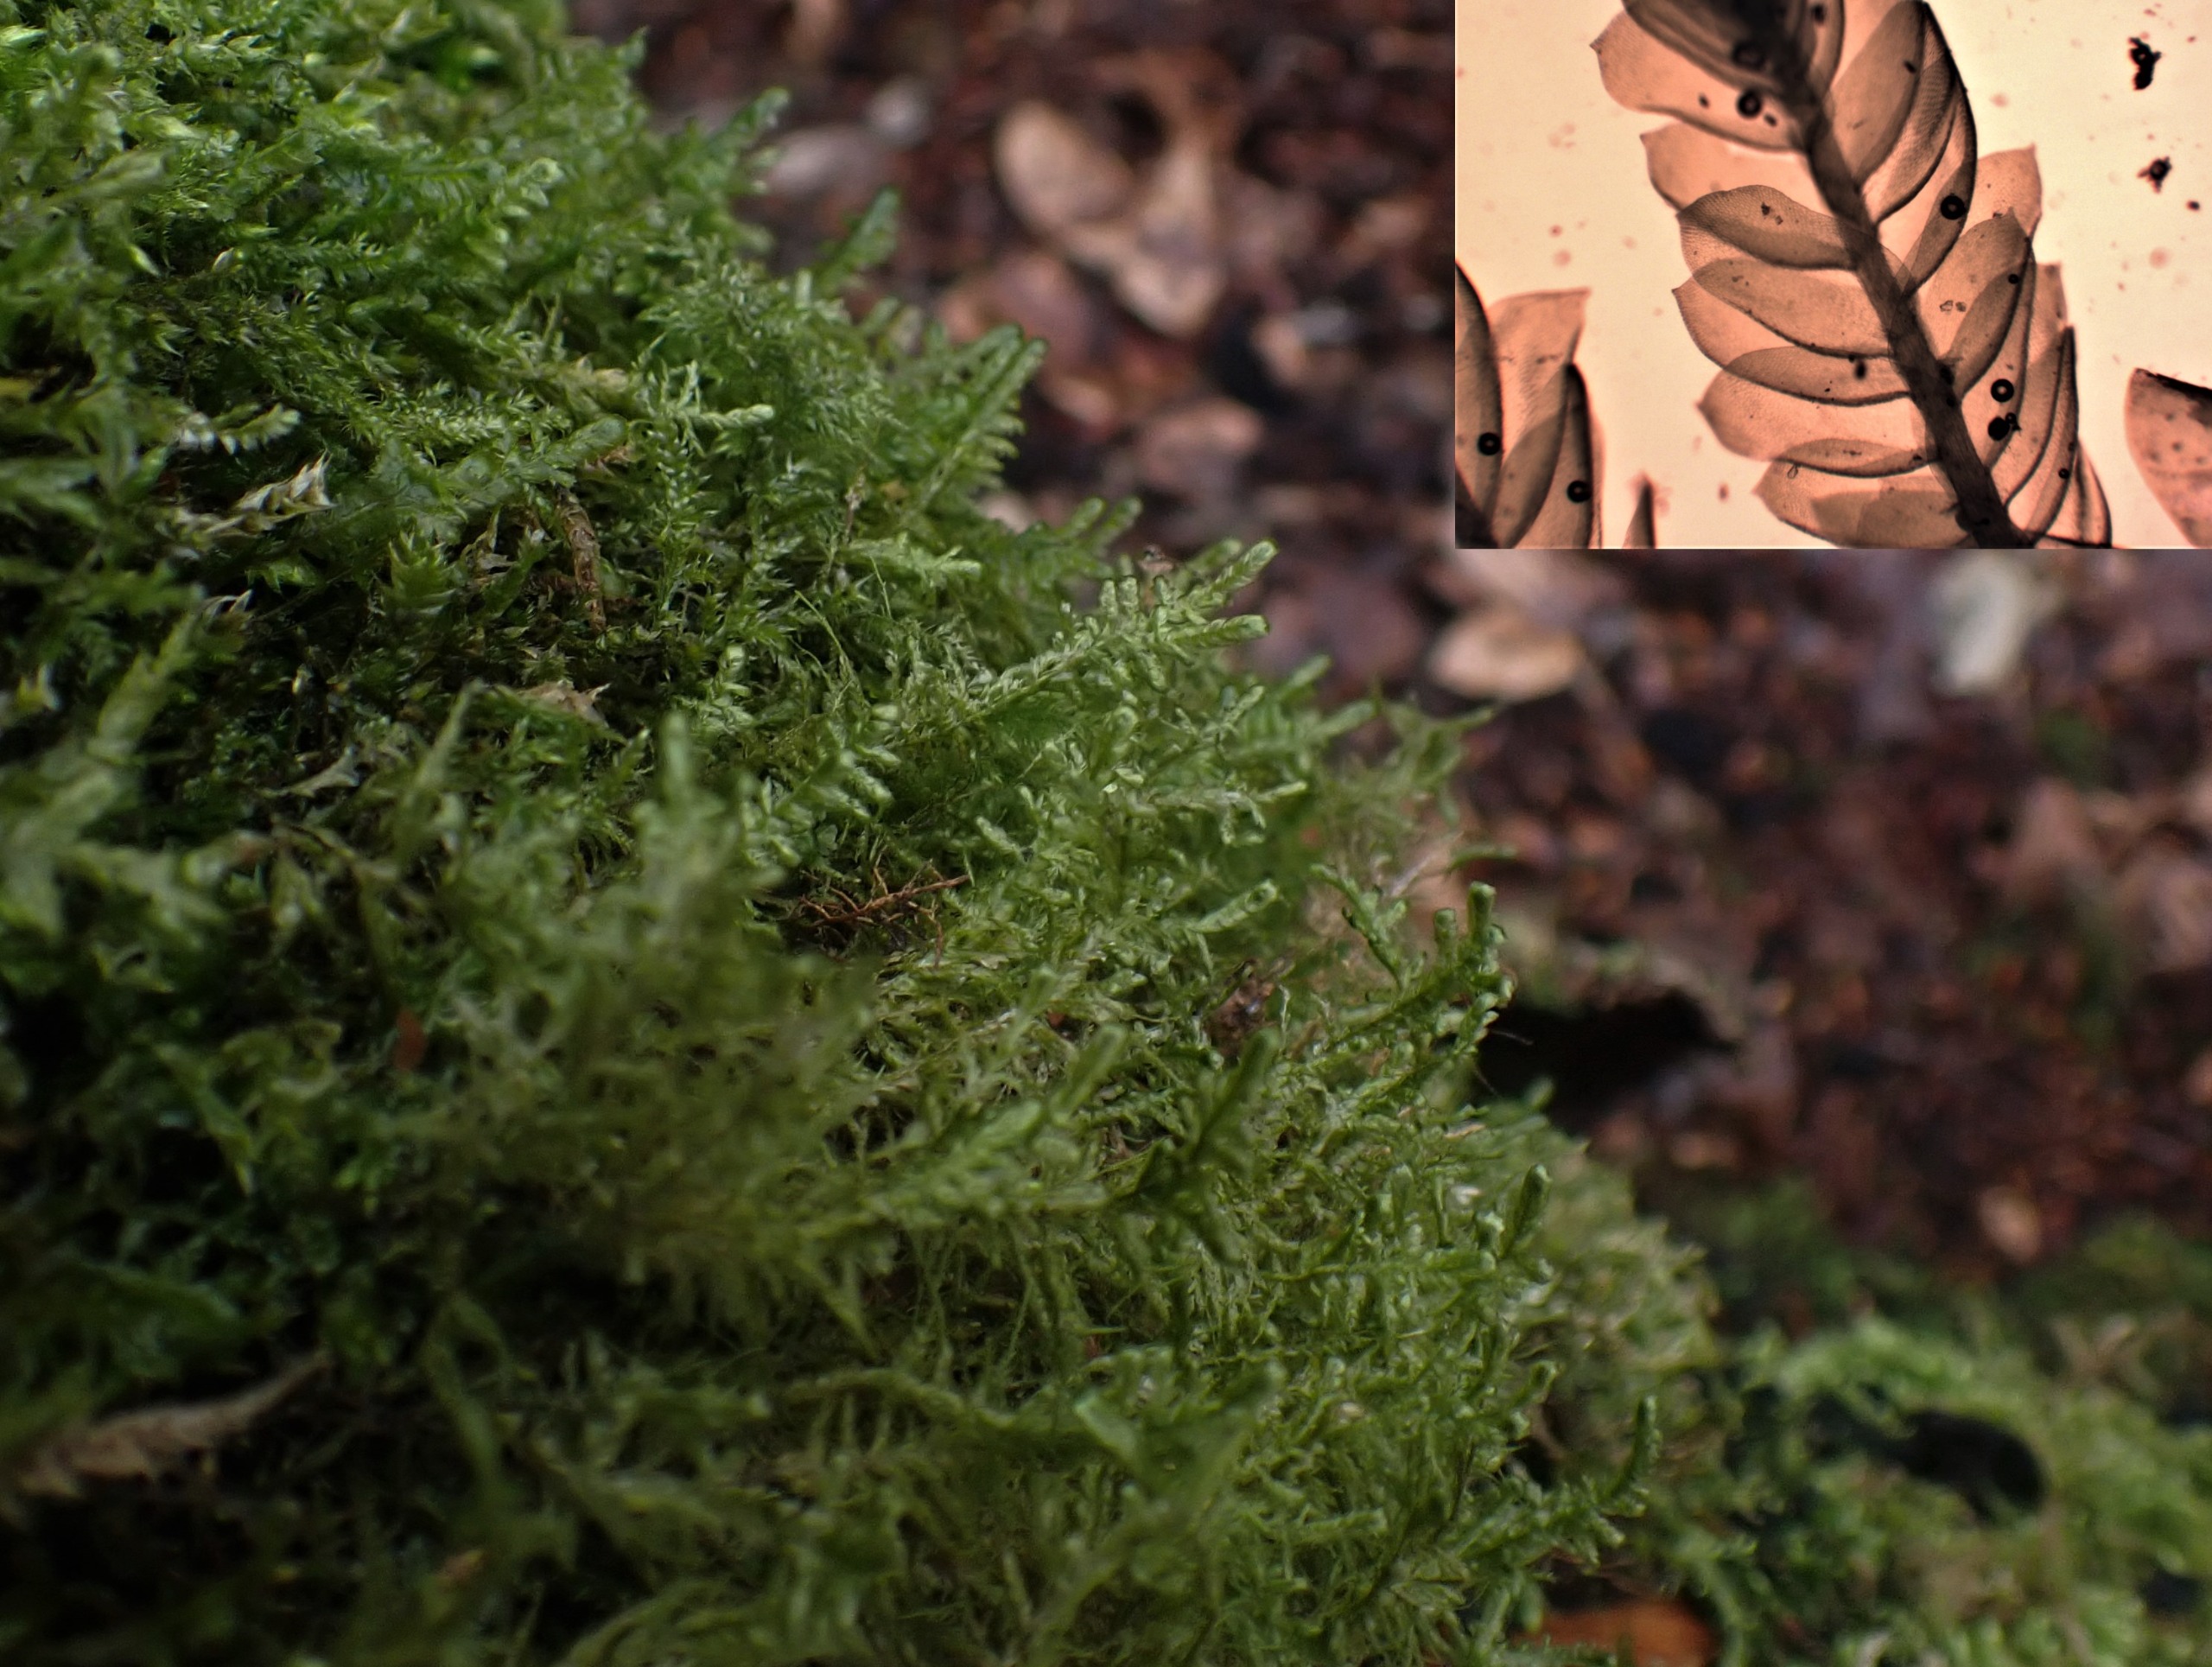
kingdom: Plantae
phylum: Bryophyta
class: Bryopsida
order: Hypnales
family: Neckeraceae
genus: Alleniella
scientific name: Alleniella complanata
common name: Almindelig fladmos
